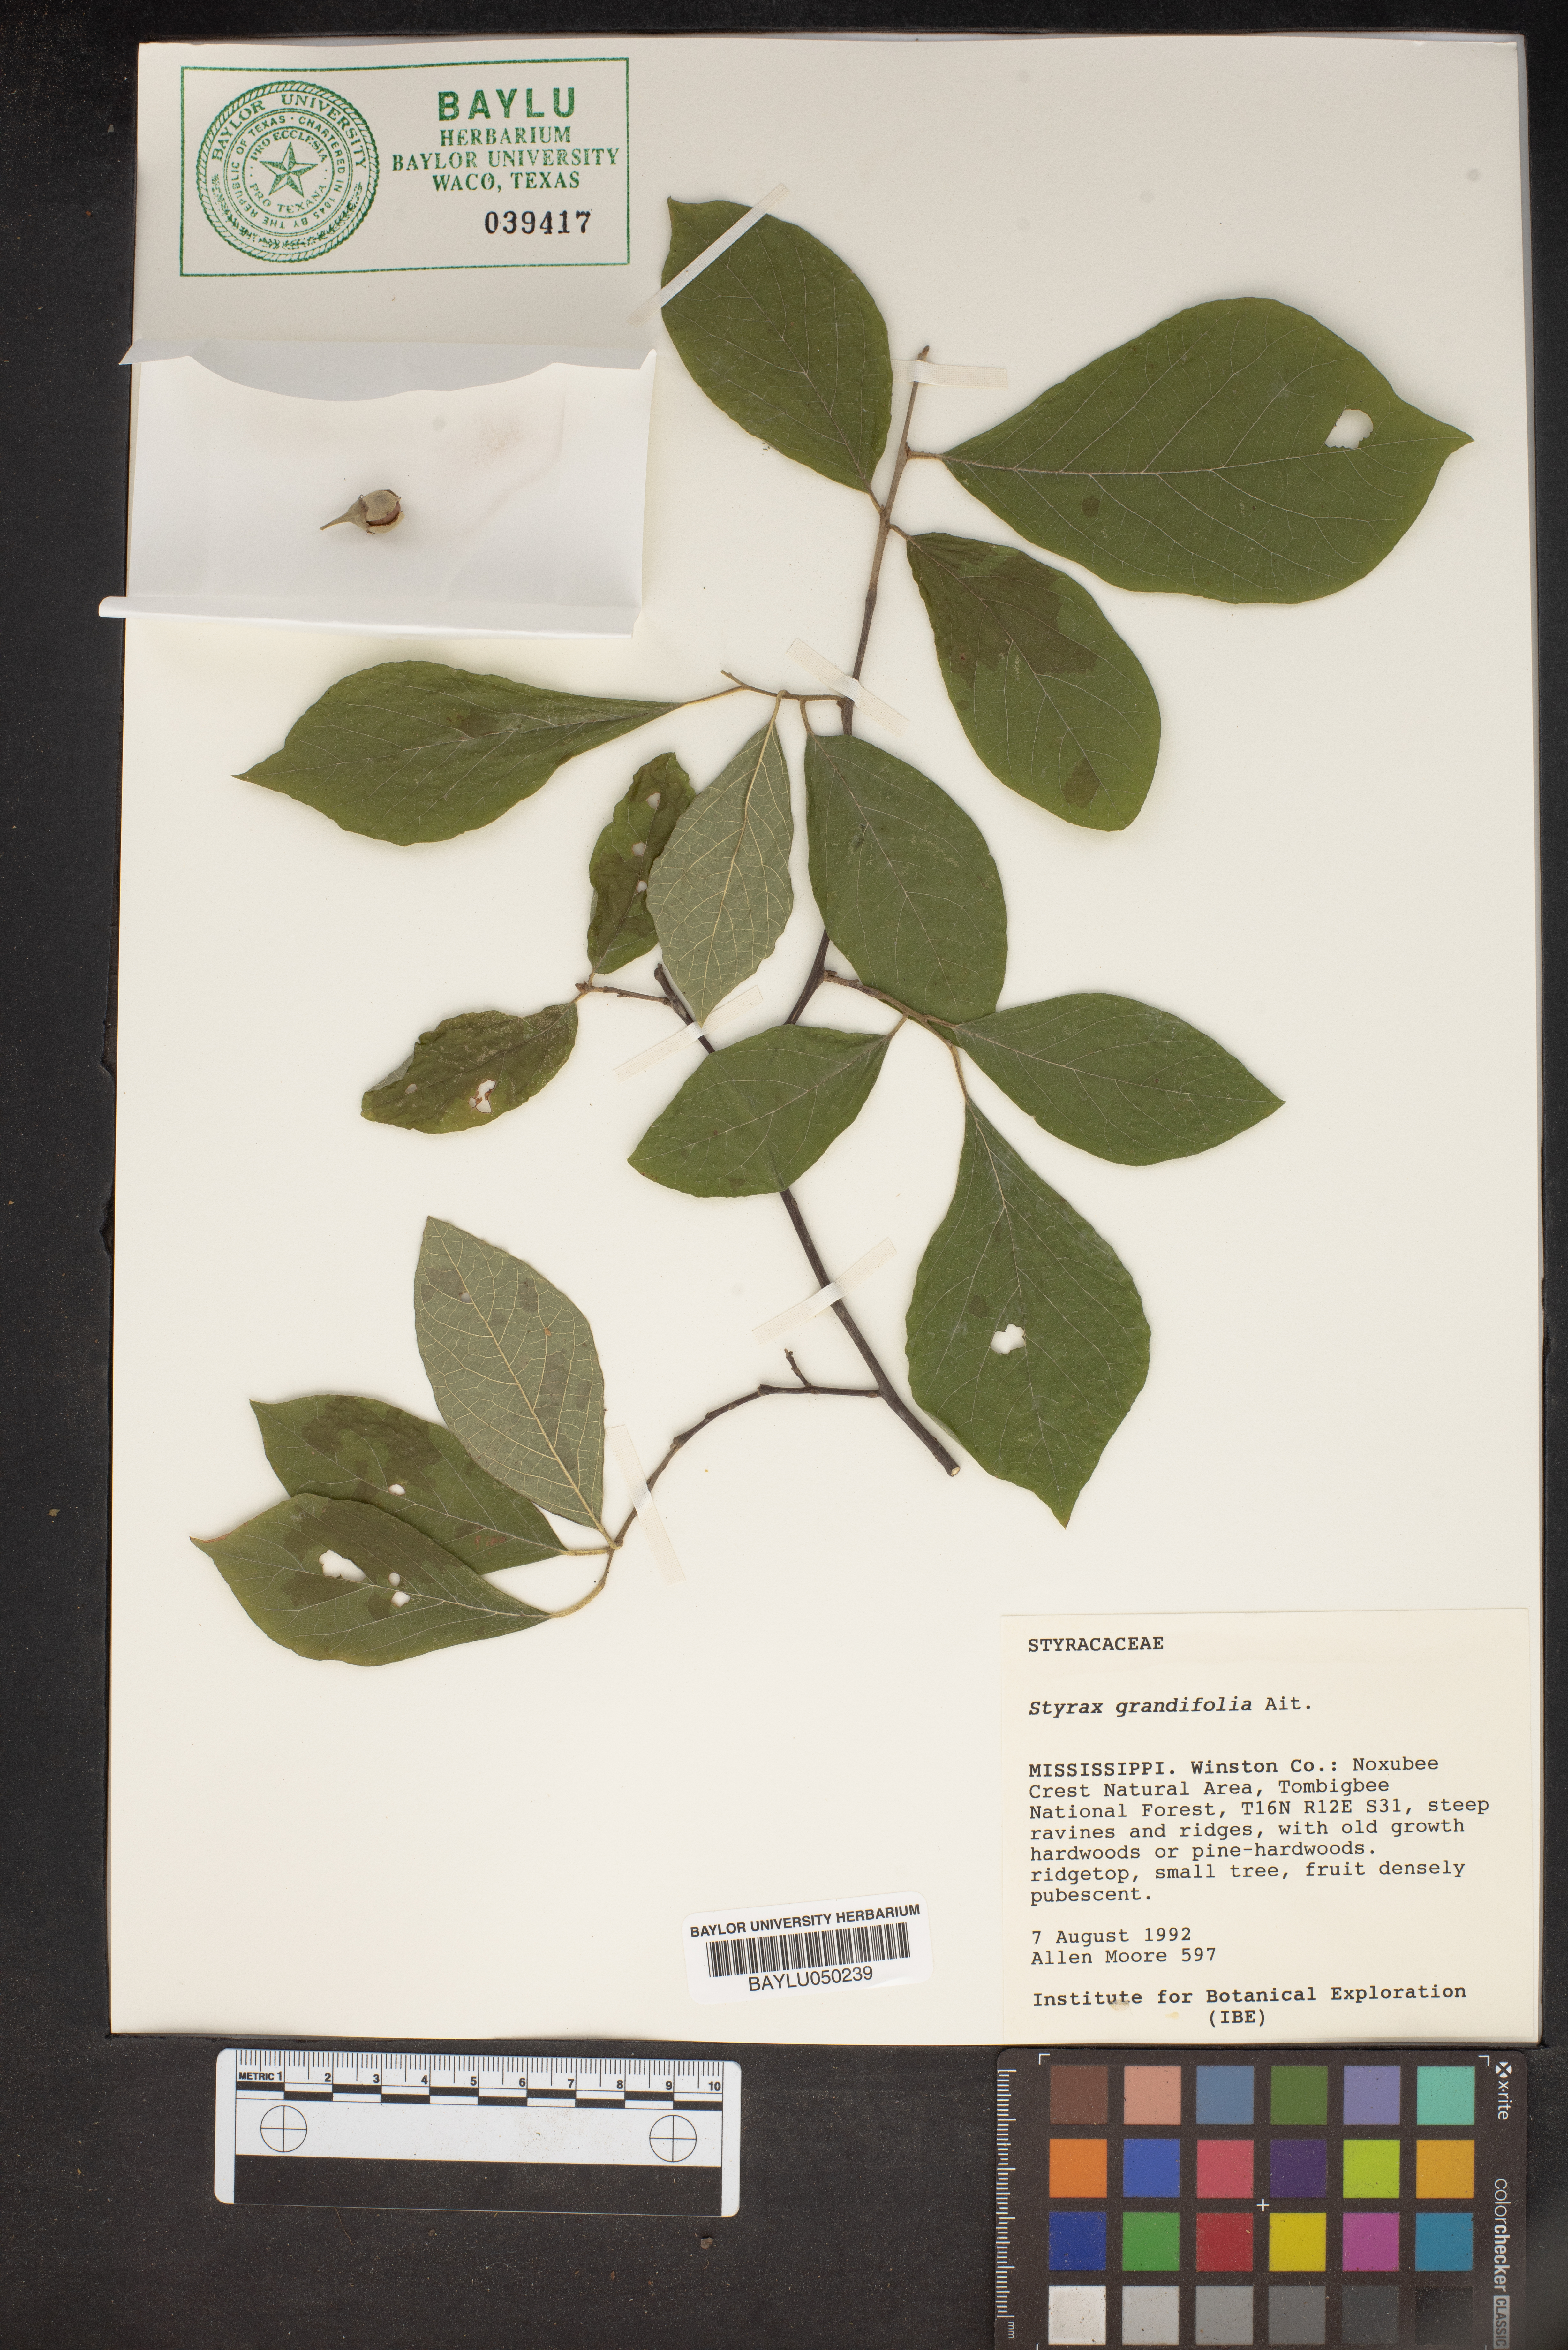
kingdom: Plantae
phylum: Tracheophyta
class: Magnoliopsida
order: Ericales
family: Styracaceae
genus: Styrax
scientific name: Styrax grandifolius
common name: Big-leaf snowbell
